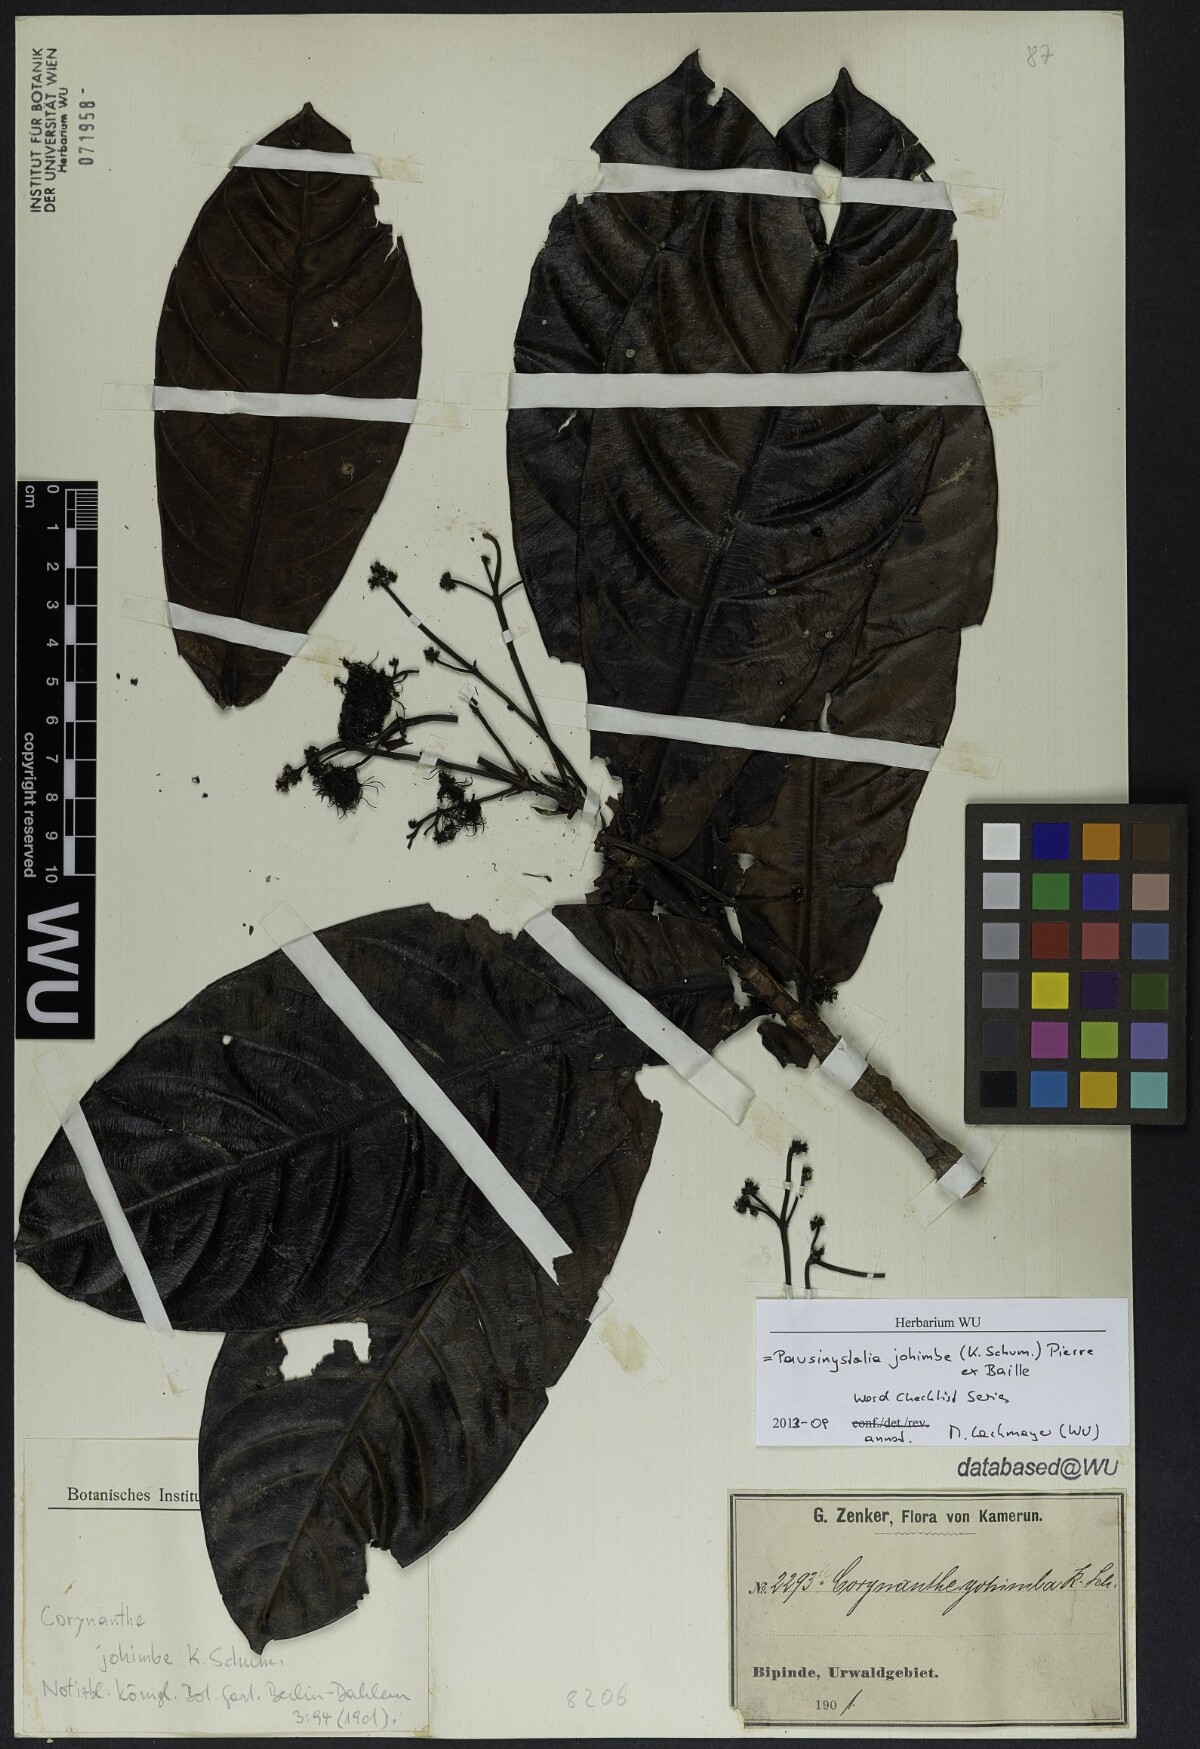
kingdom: Plantae
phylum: Tracheophyta
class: Magnoliopsida
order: Gentianales
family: Rubiaceae
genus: Corynanthe
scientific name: Corynanthe johimbe
